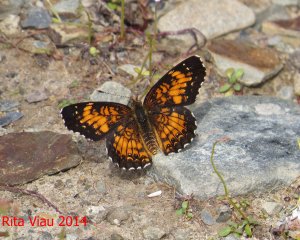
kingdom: Animalia
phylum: Arthropoda
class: Insecta
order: Lepidoptera
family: Nymphalidae
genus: Chlosyne
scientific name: Chlosyne harrisii
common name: Harris's Checkerspot
